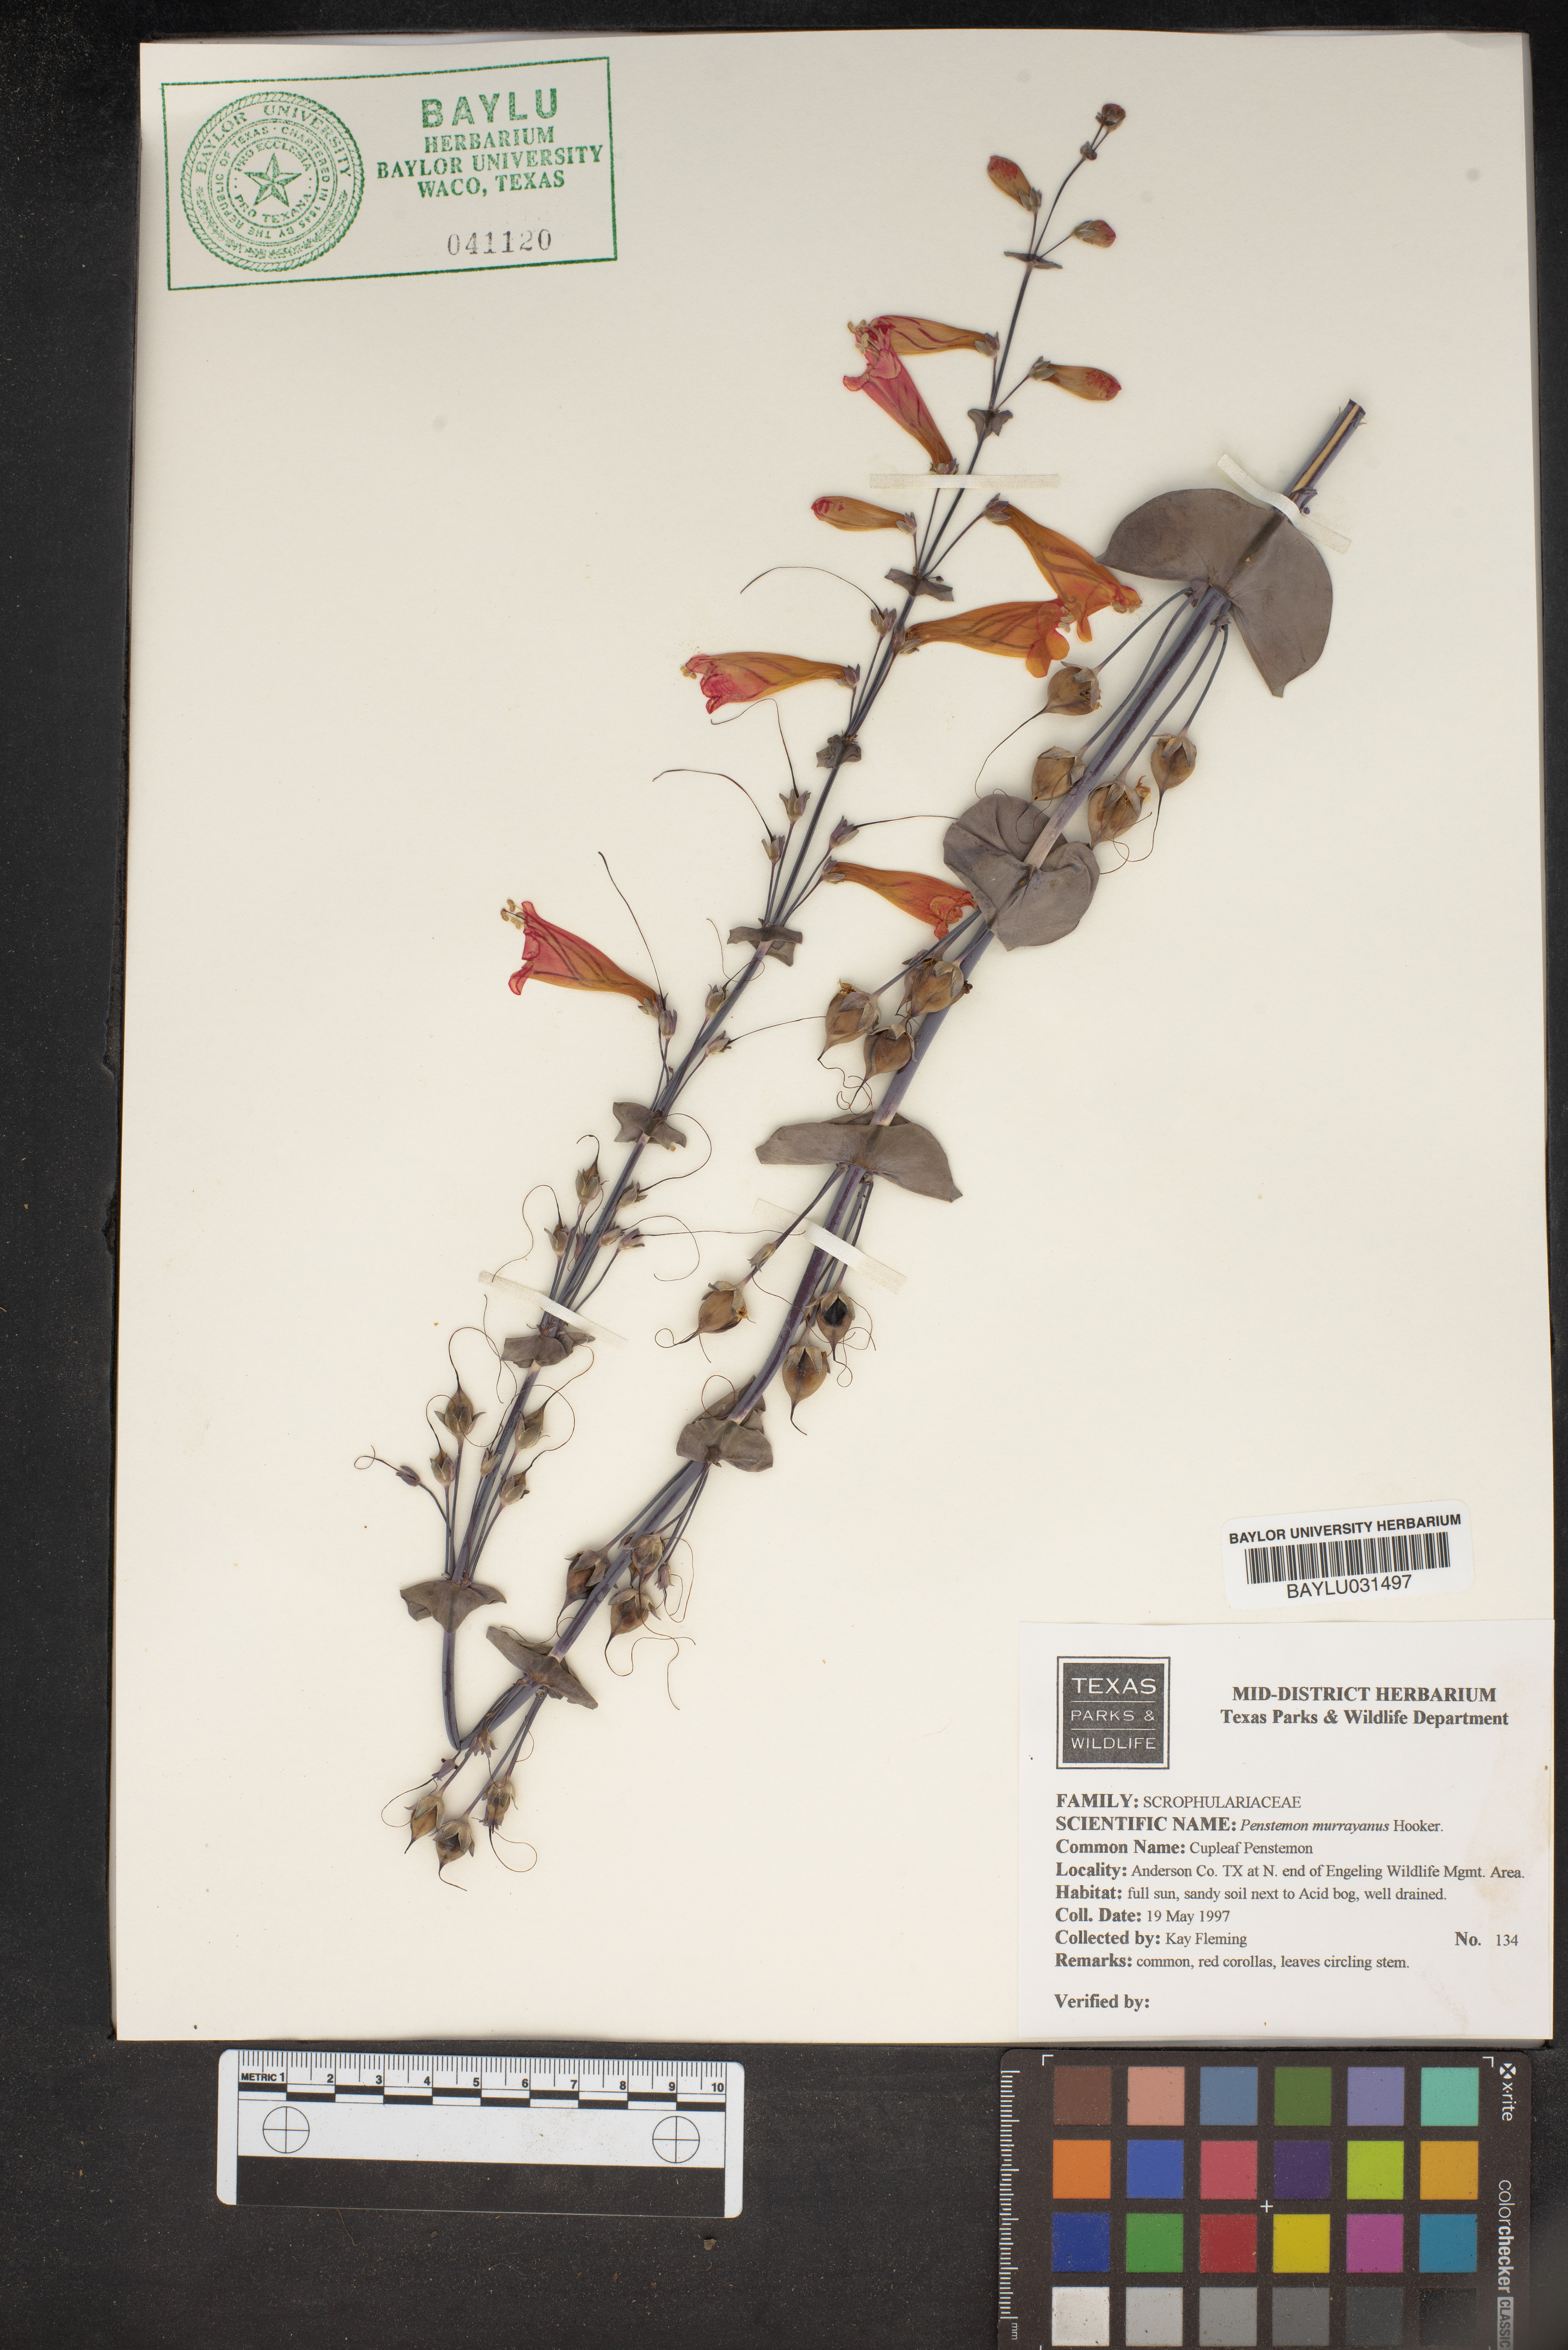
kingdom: Plantae
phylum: Tracheophyta
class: Magnoliopsida
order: Lamiales
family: Plantaginaceae
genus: Penstemon
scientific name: Penstemon murrayanus
